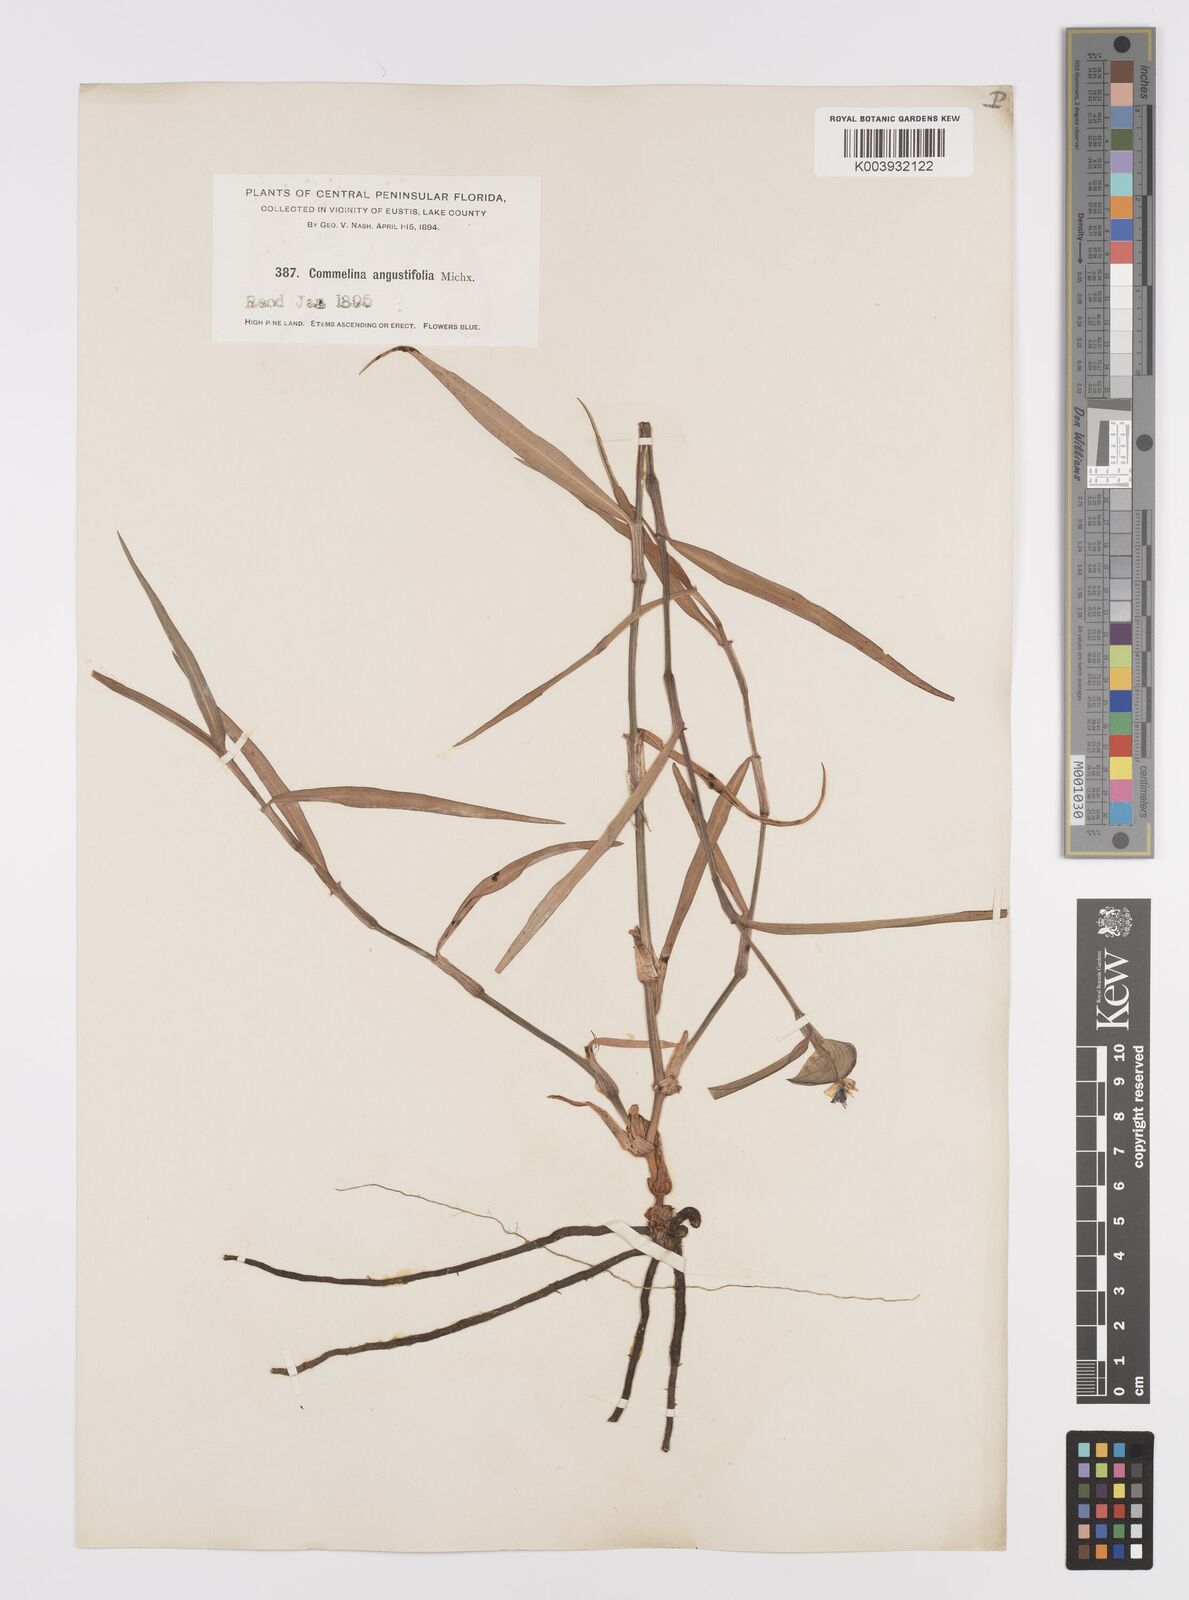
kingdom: Plantae
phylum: Tracheophyta
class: Liliopsida
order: Commelinales
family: Commelinaceae
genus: Commelina
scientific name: Commelina erecta
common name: Blousel blommetjie
